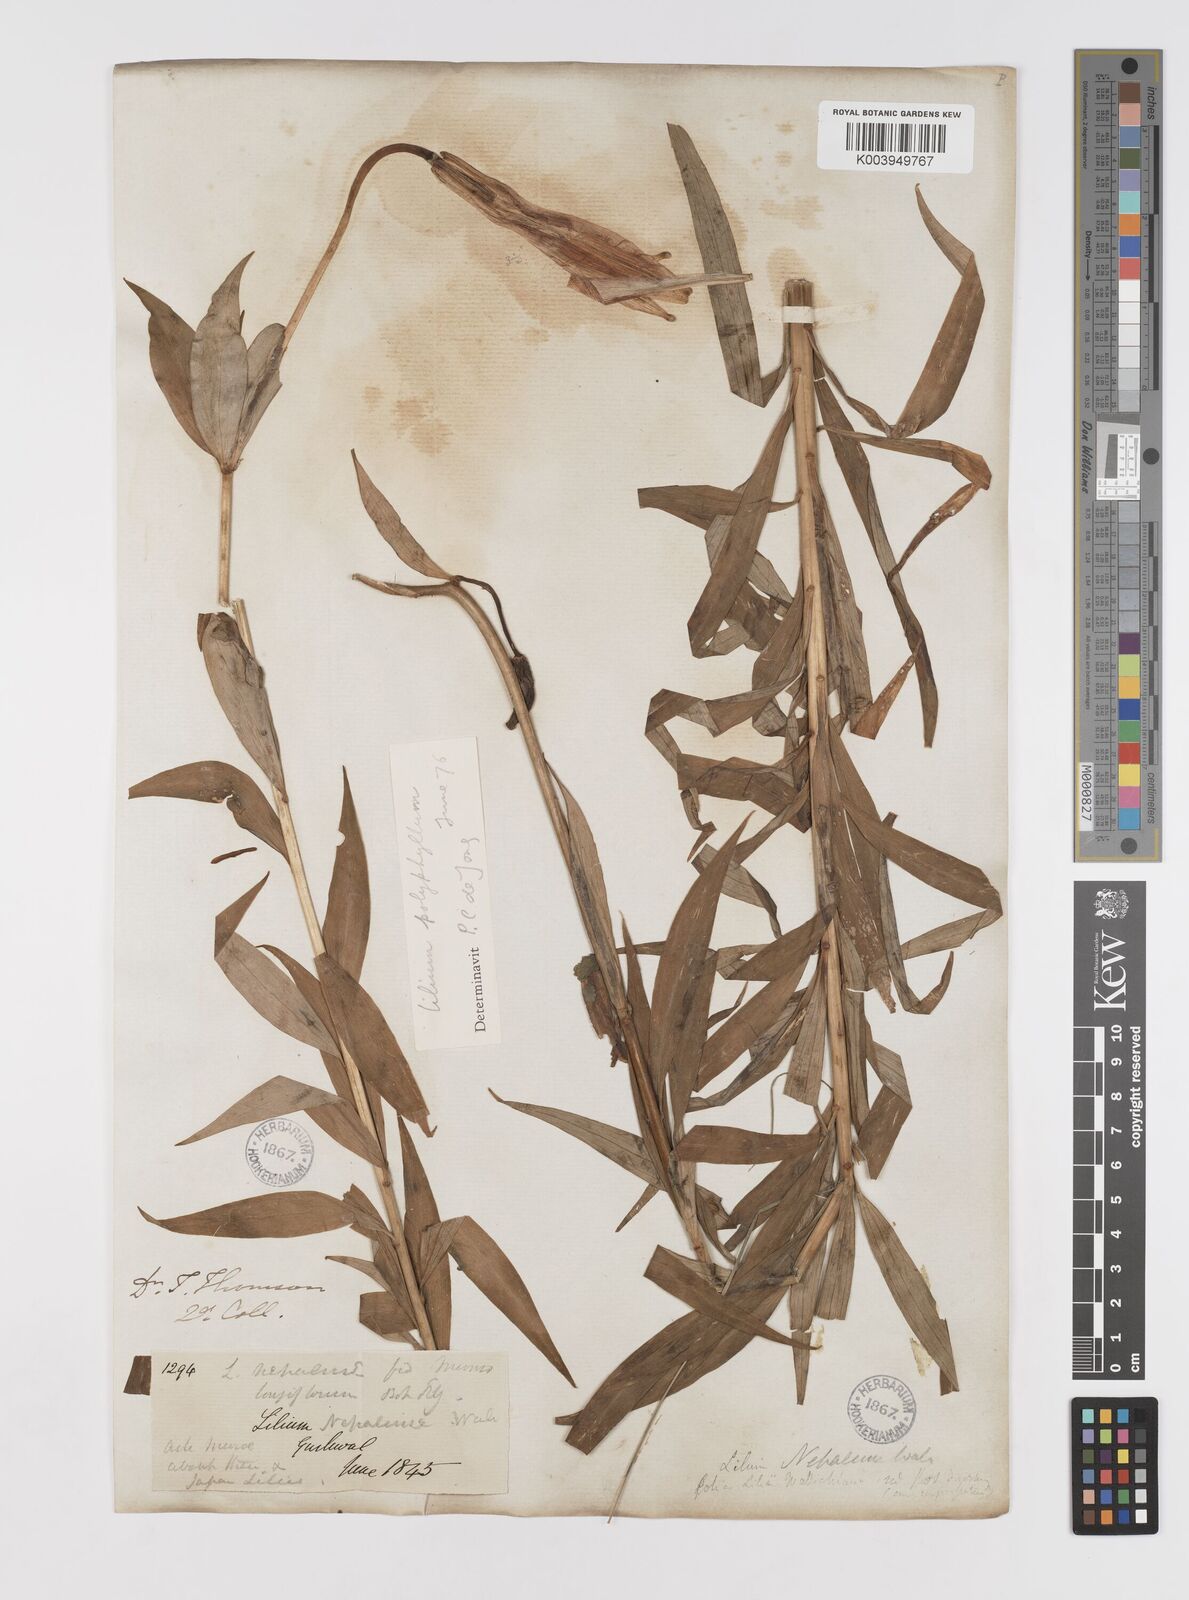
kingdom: Plantae
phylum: Tracheophyta
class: Liliopsida
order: Liliales
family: Liliaceae
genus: Lilium
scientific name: Lilium polyphyllum
